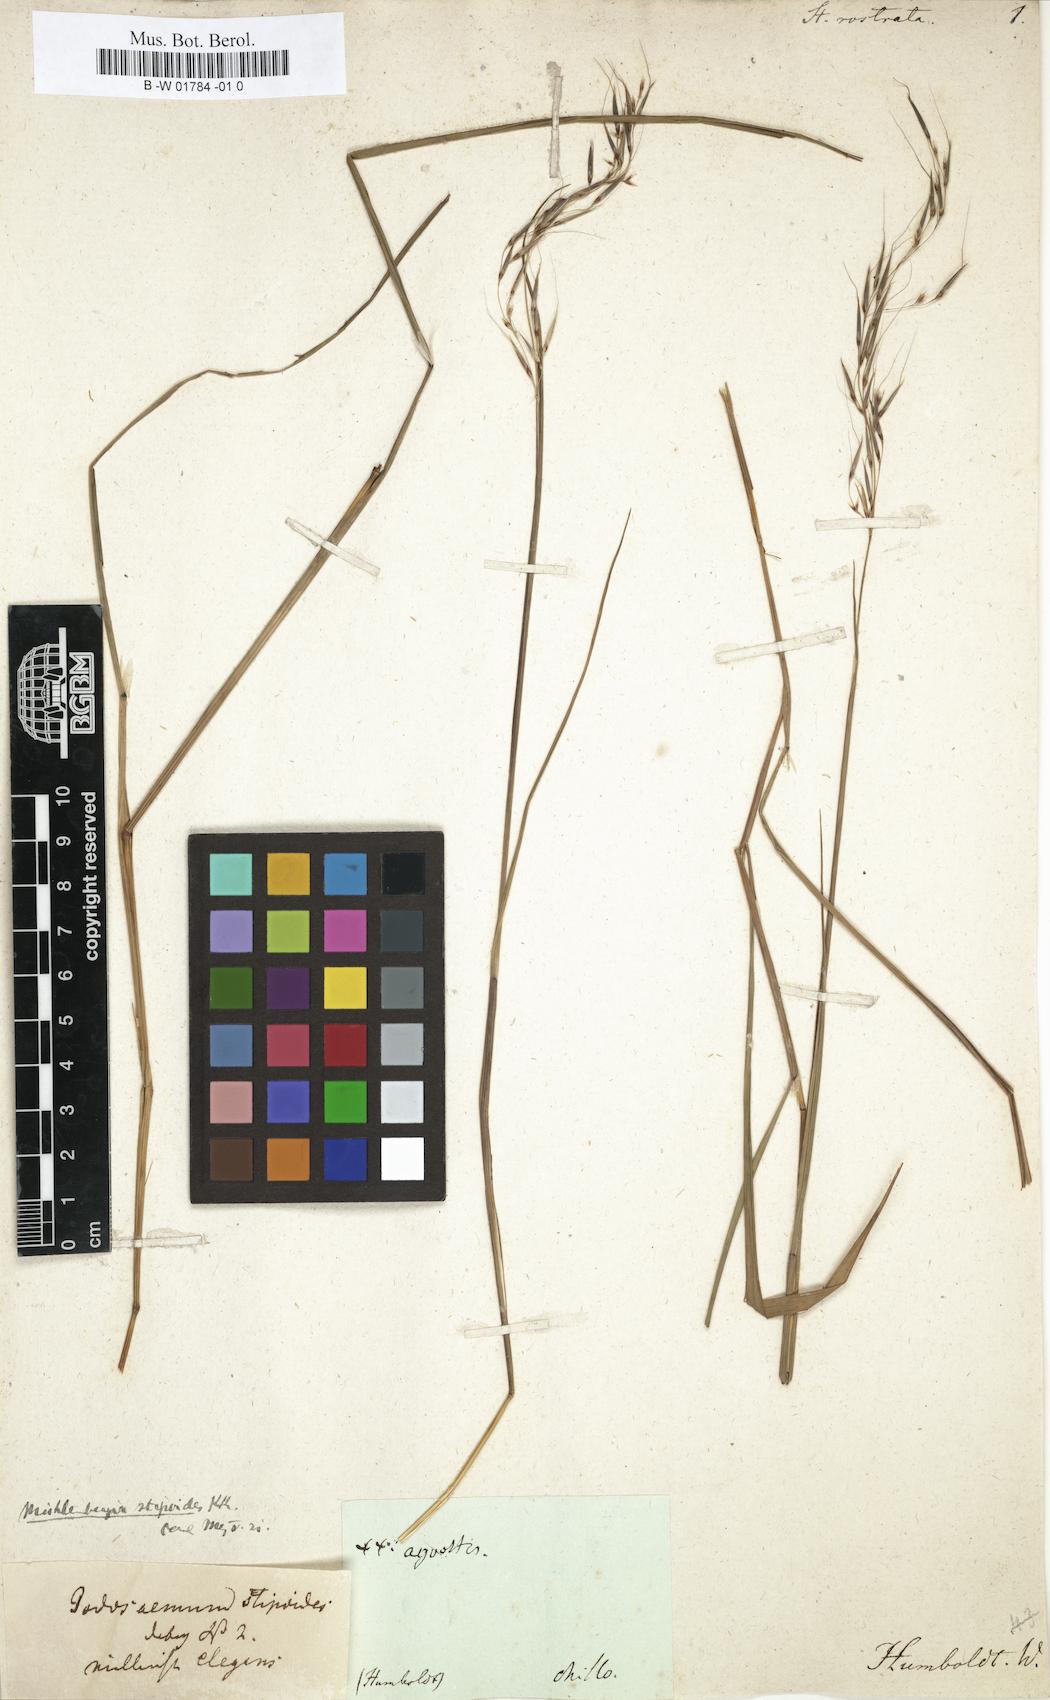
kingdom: Plantae
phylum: Tracheophyta
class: Liliopsida
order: Poales
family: Poaceae
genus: Triniochloa
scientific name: Triniochloa stipoides
